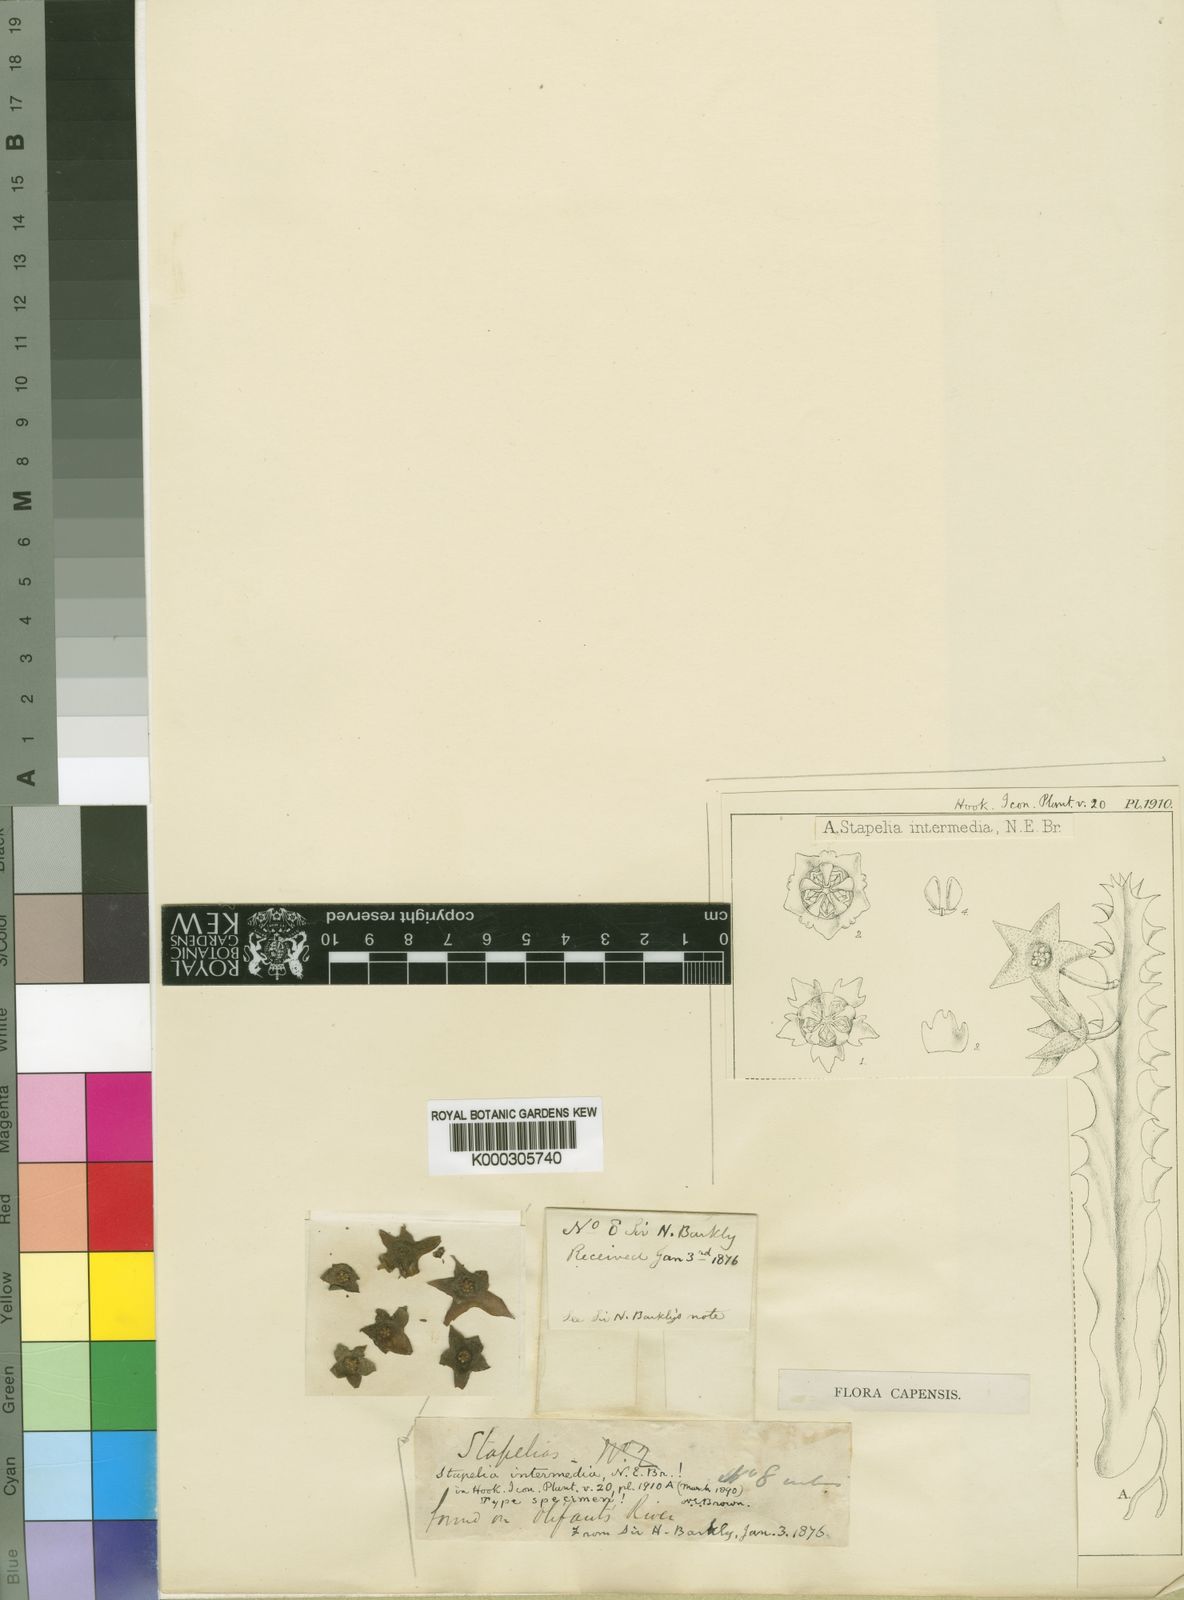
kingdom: Plantae
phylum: Tracheophyta
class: Magnoliopsida
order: Gentianales
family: Apocynaceae
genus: Stapelia
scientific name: Stapelia intermedia
